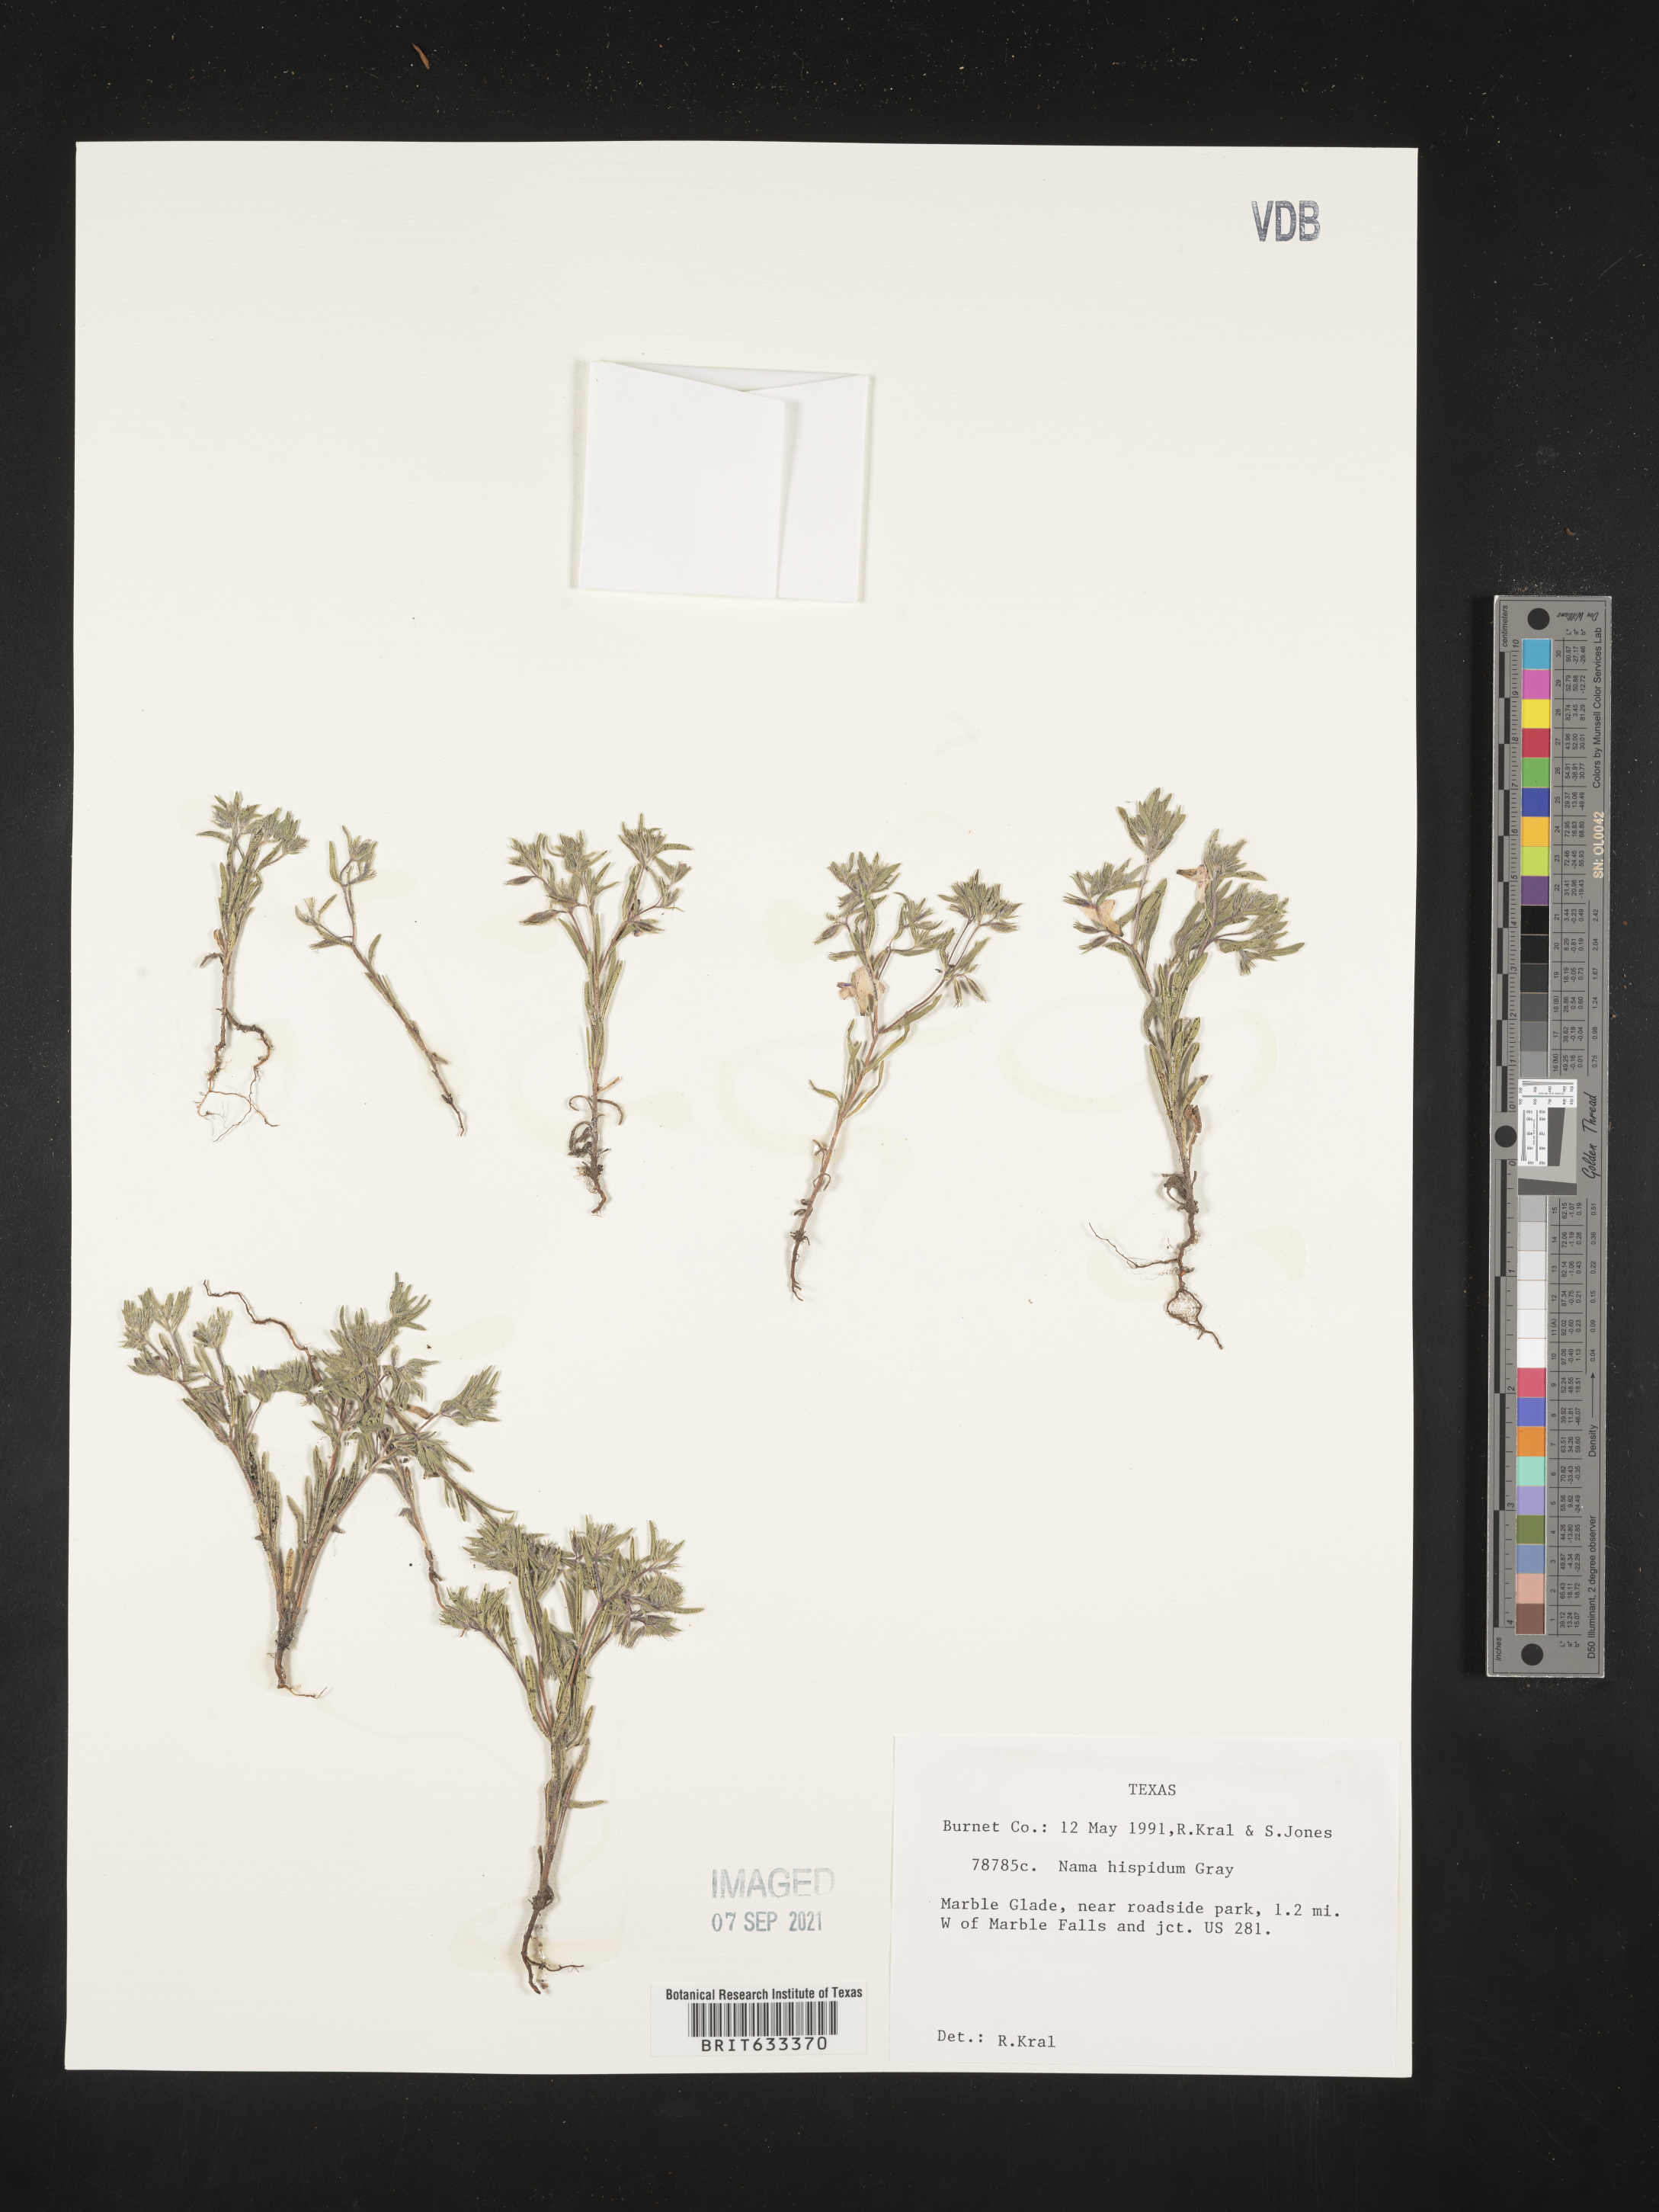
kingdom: Plantae
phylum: Tracheophyta
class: Magnoliopsida
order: Boraginales
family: Namaceae
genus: Nama
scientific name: Nama hispida
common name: Bristly nama
